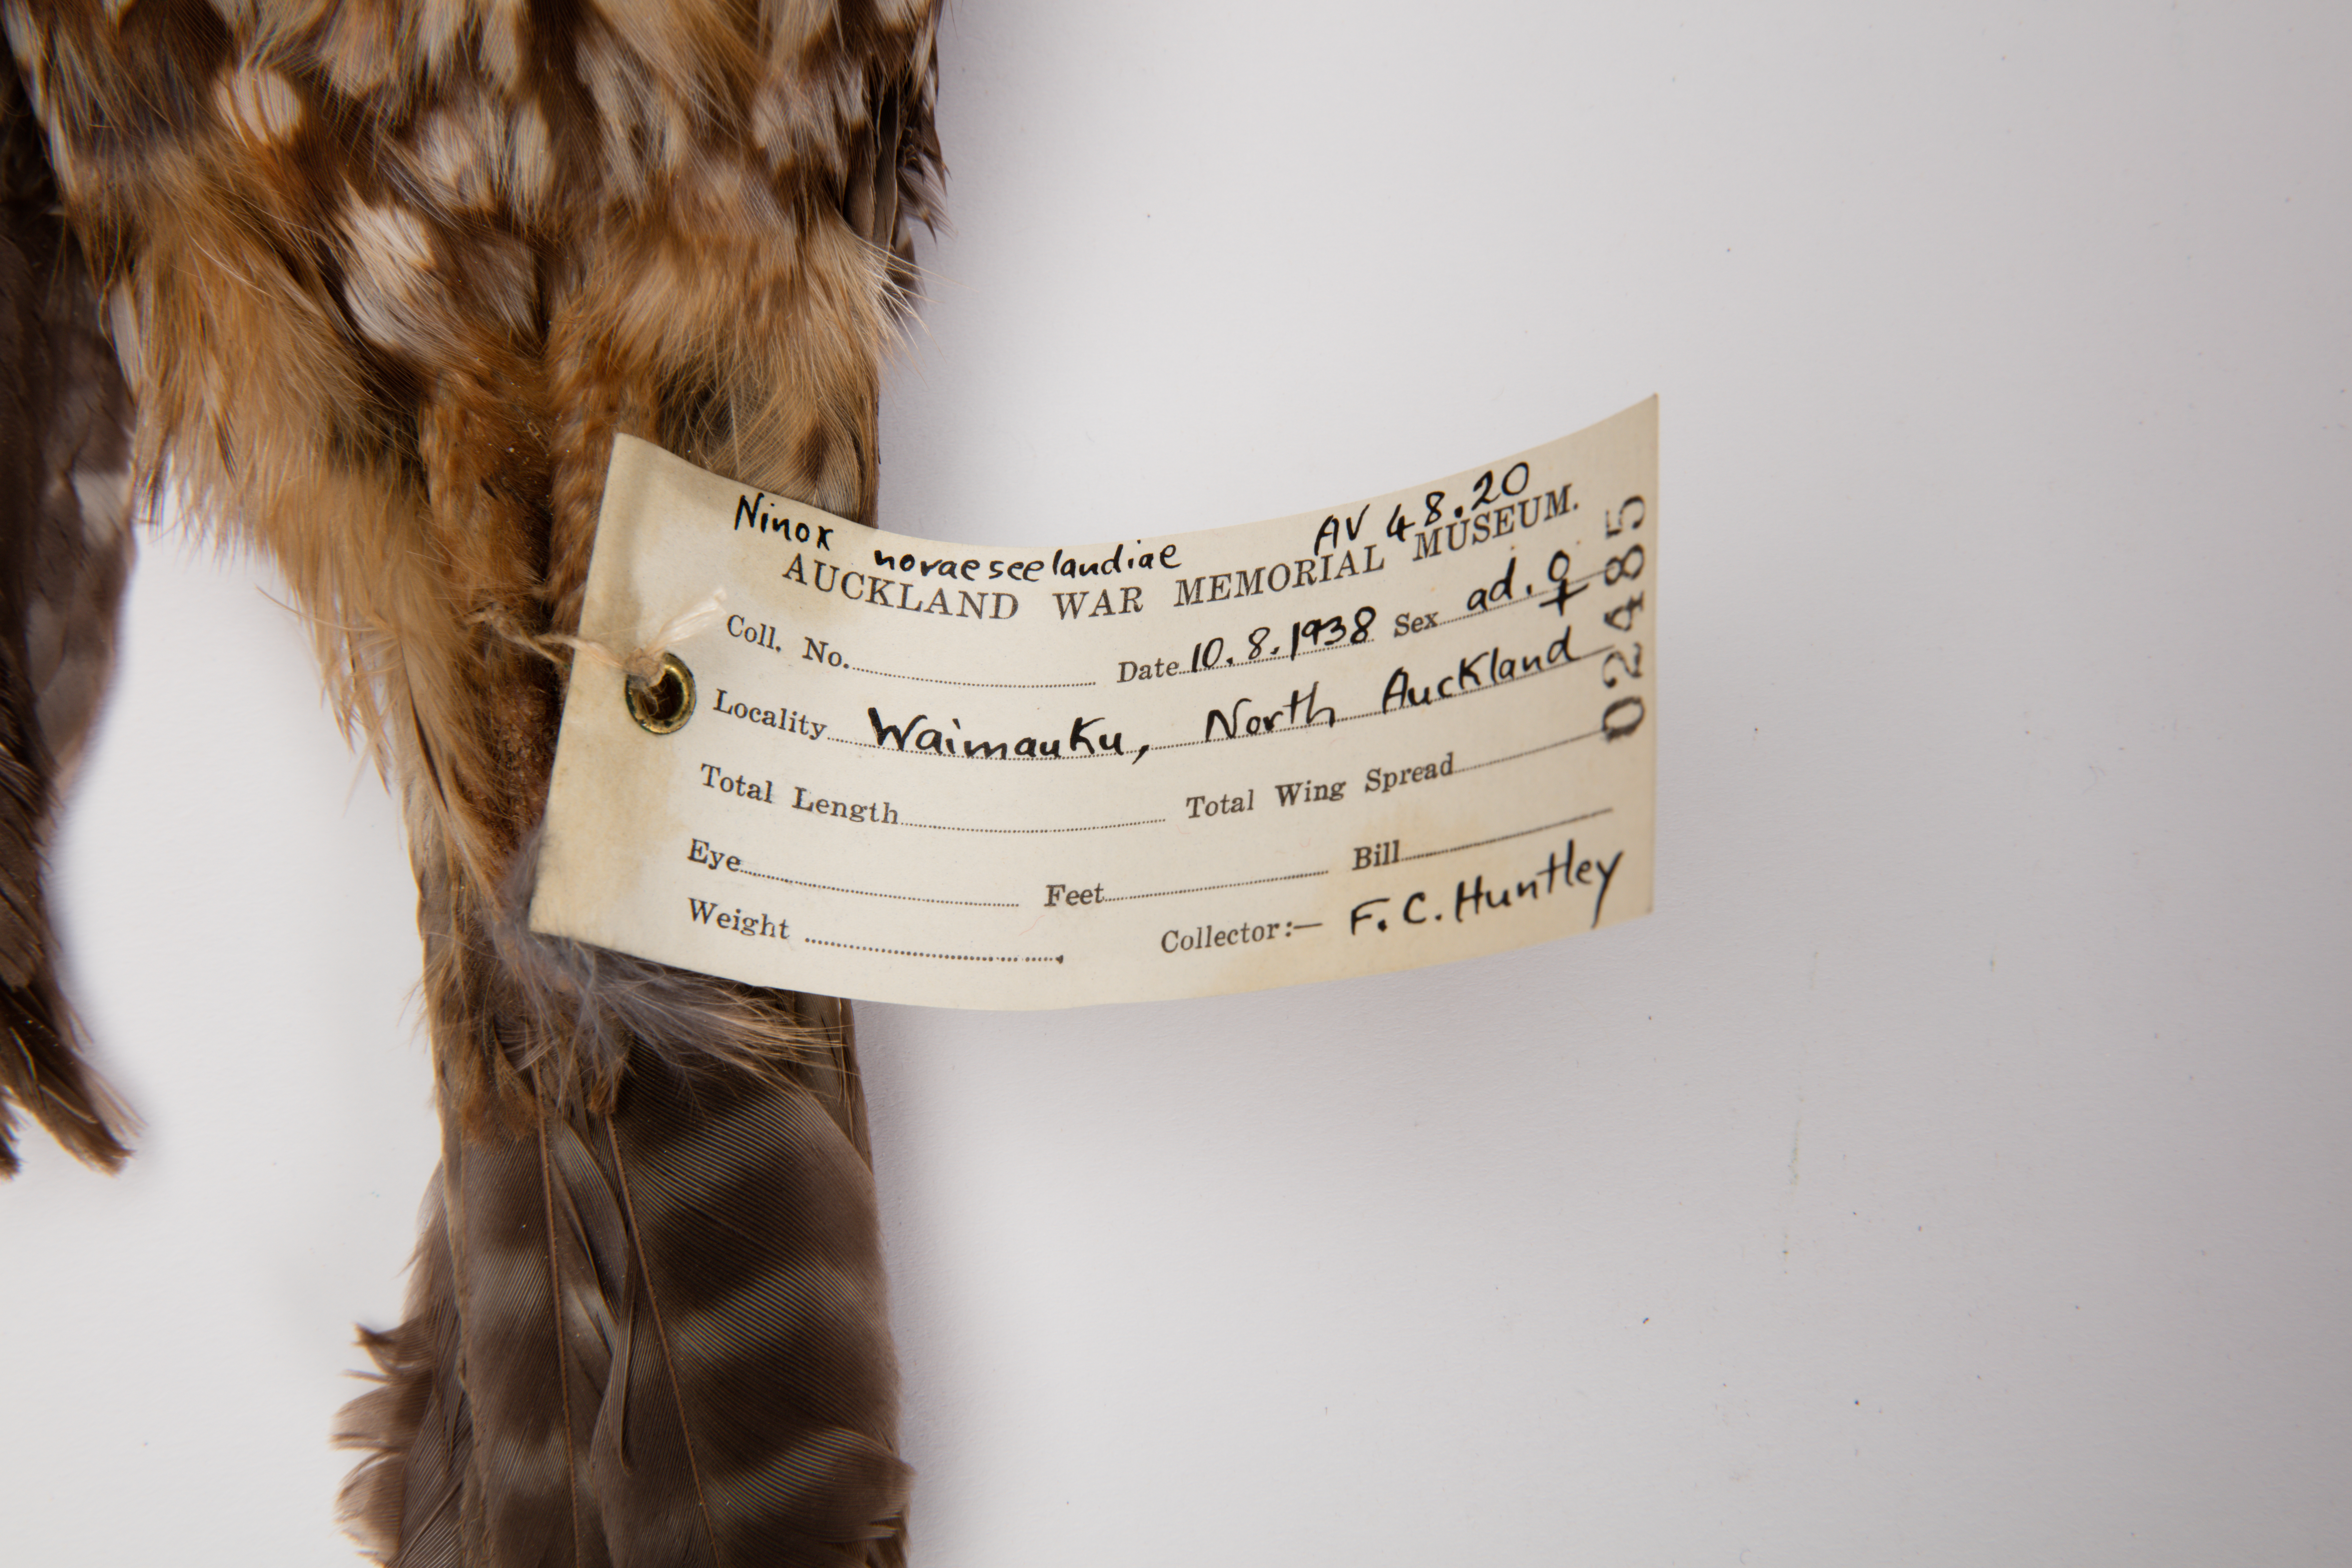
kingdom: Animalia
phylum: Chordata
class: Aves
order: Strigiformes
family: Strigidae
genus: Ninox
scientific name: Ninox novaeseelandiae
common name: Morepork
